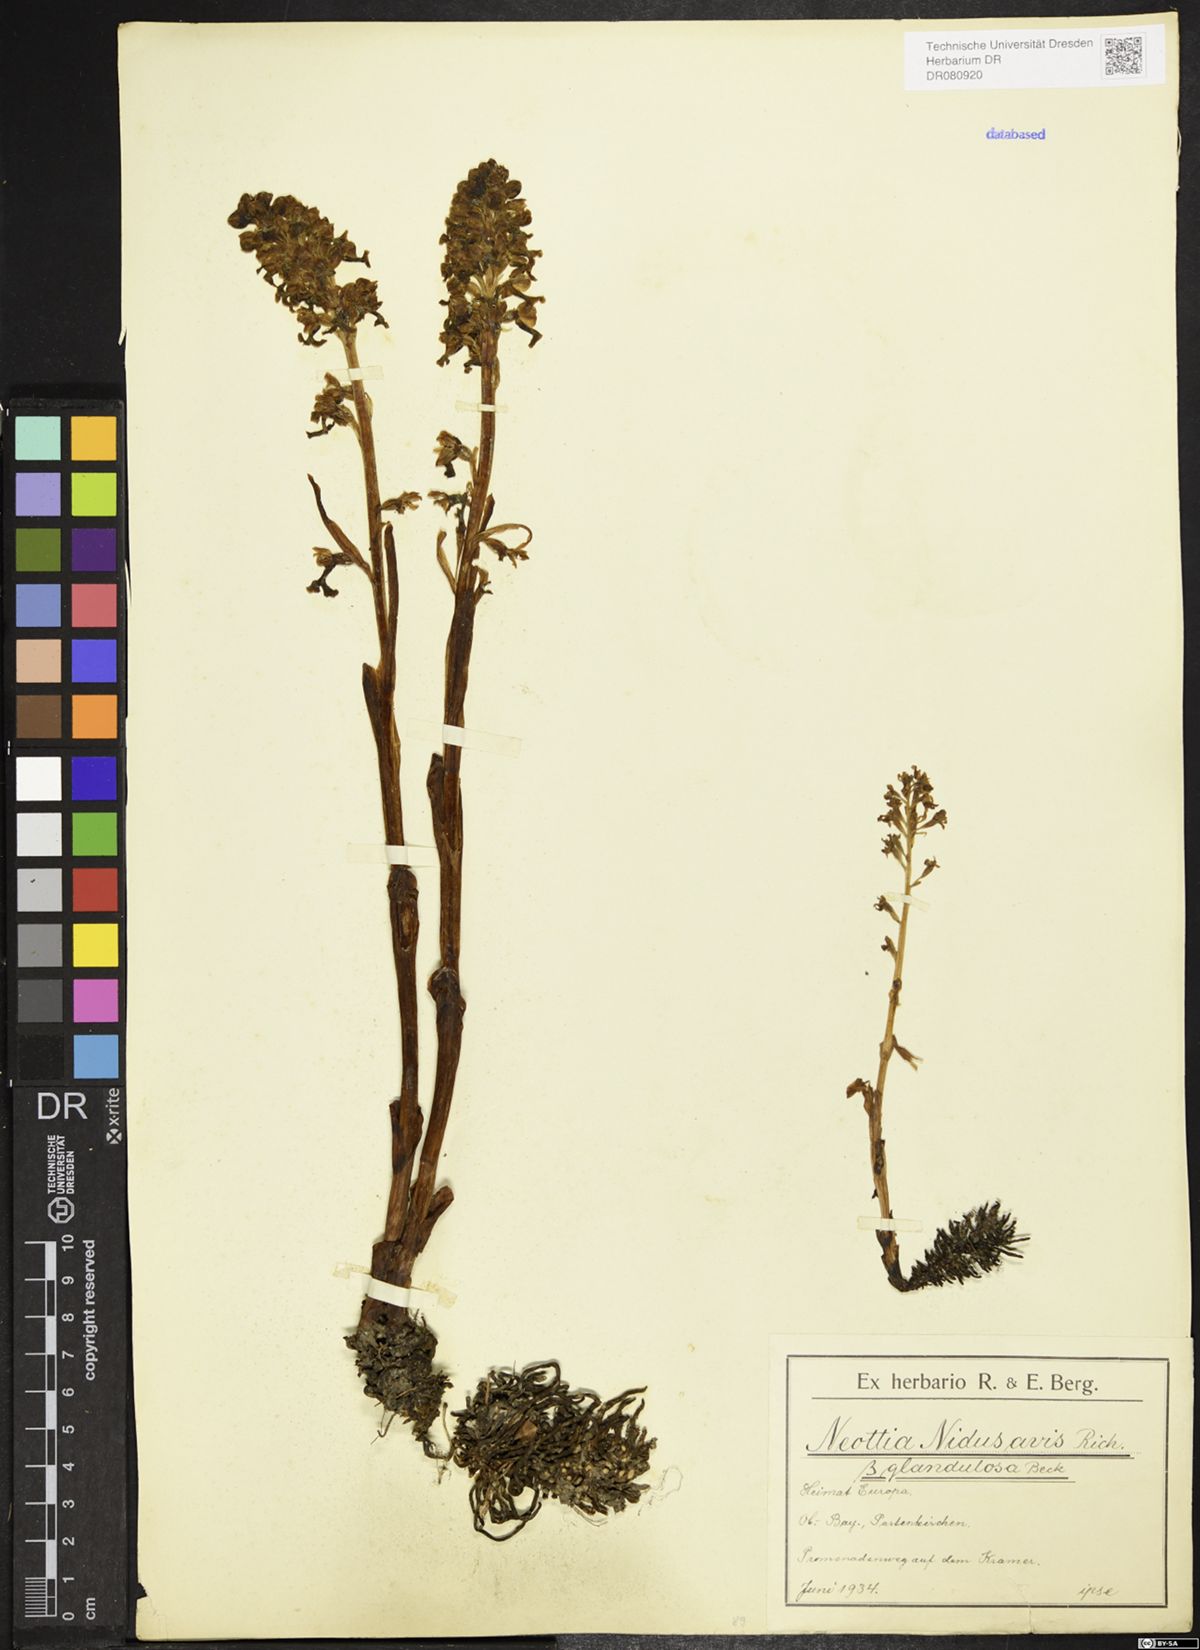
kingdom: Plantae
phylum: Tracheophyta
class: Liliopsida
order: Asparagales
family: Orchidaceae
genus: Neottia
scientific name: Neottia nidus-avis
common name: Bird's-nest orchid
